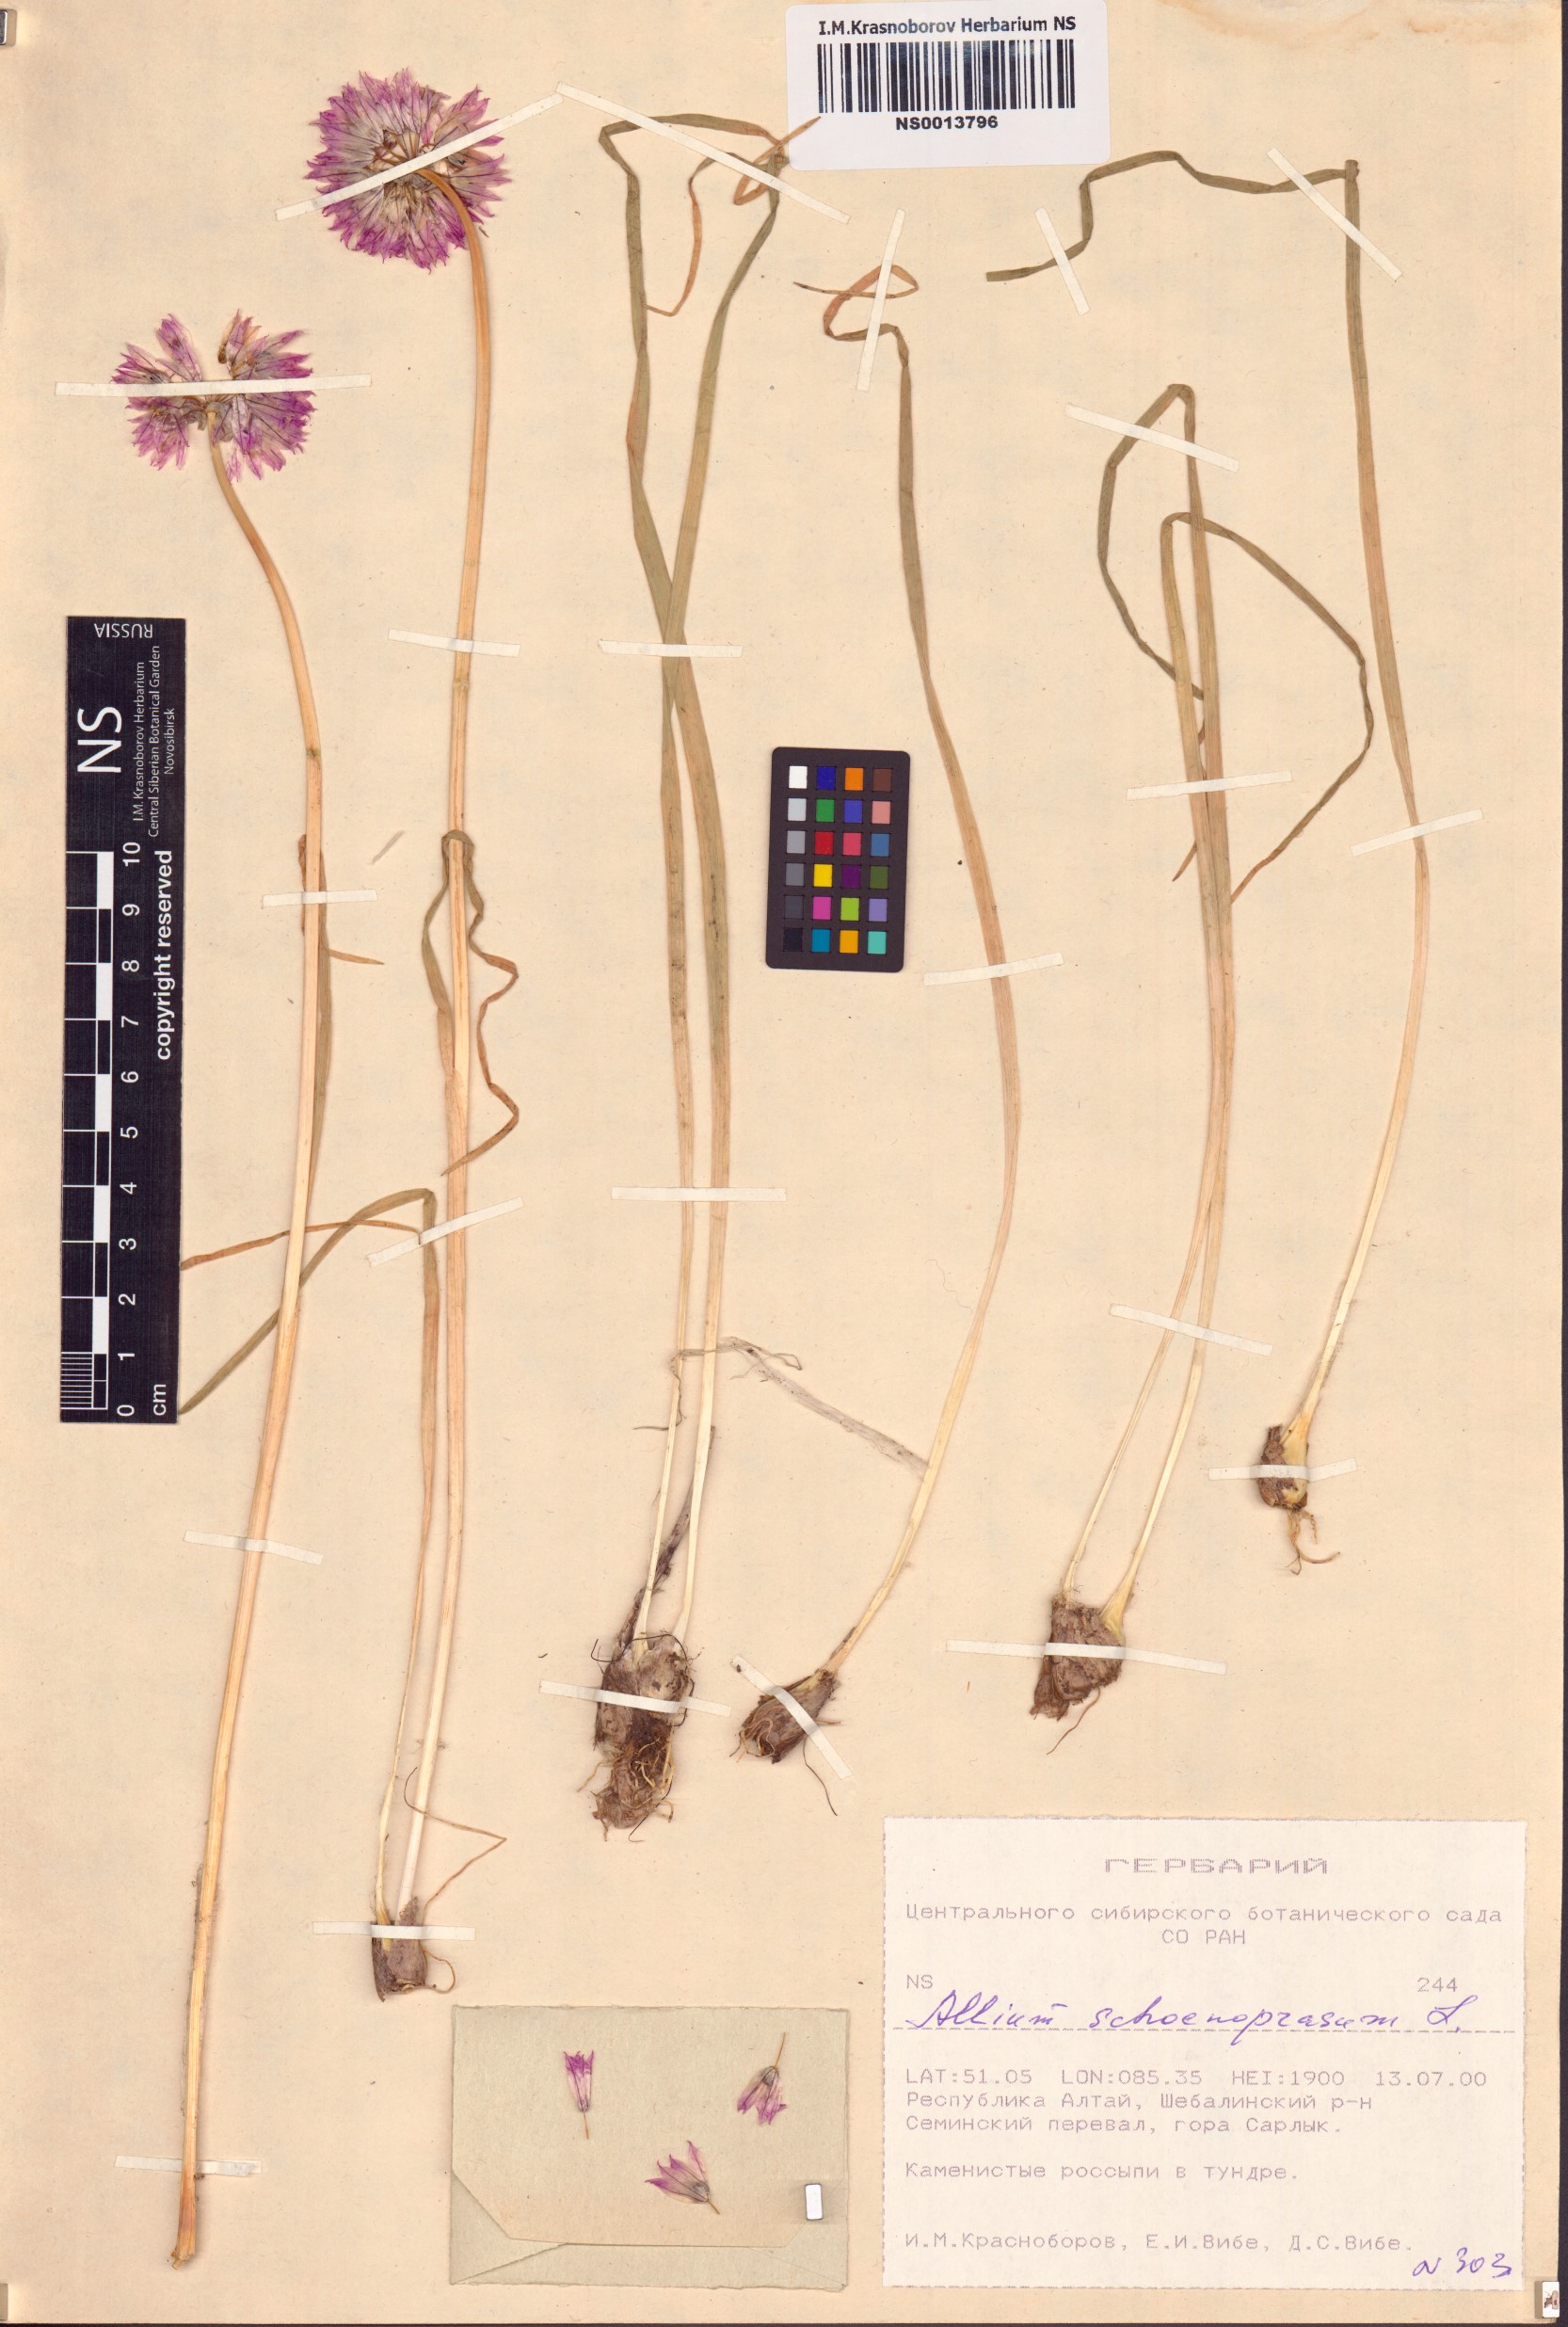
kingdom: Plantae
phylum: Tracheophyta
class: Liliopsida
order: Asparagales
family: Amaryllidaceae
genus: Allium
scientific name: Allium schoenoprasum
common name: Chives
